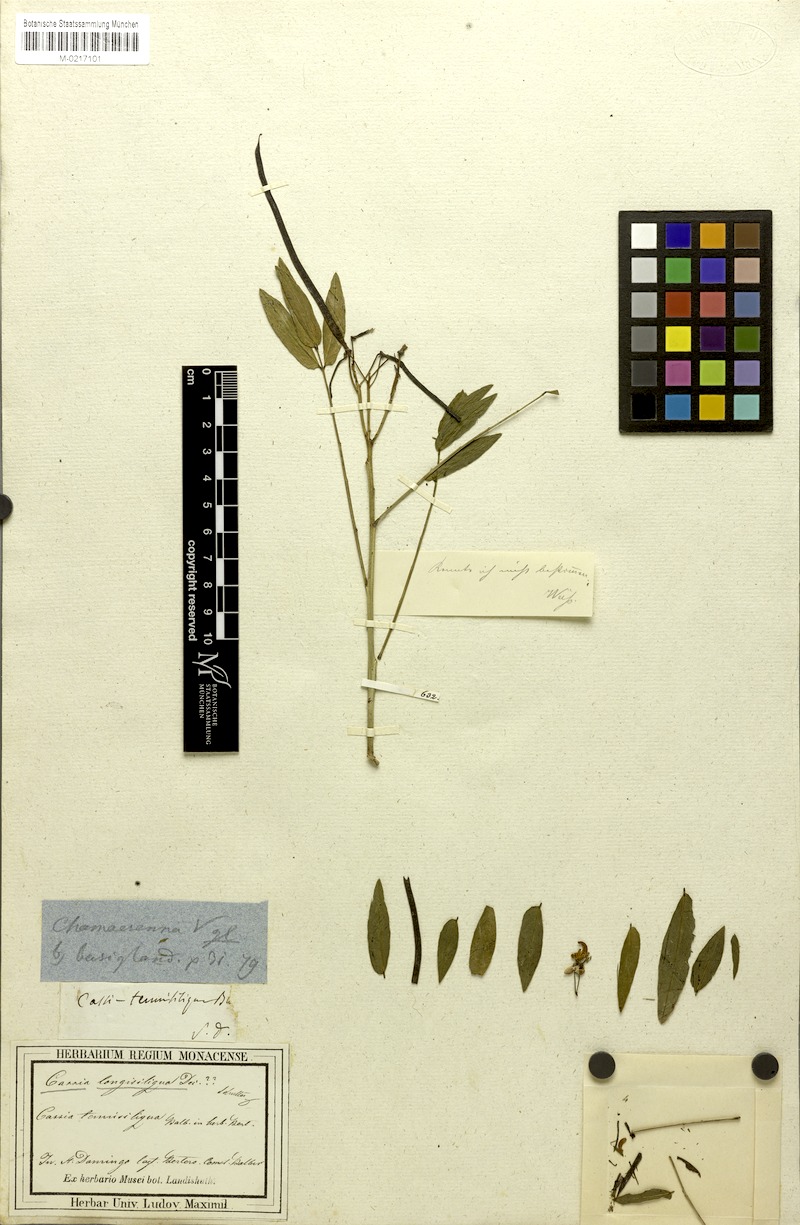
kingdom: Plantae
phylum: Tracheophyta
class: Magnoliopsida
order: Fabales
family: Fabaceae
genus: Senna
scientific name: Senna mexicana
